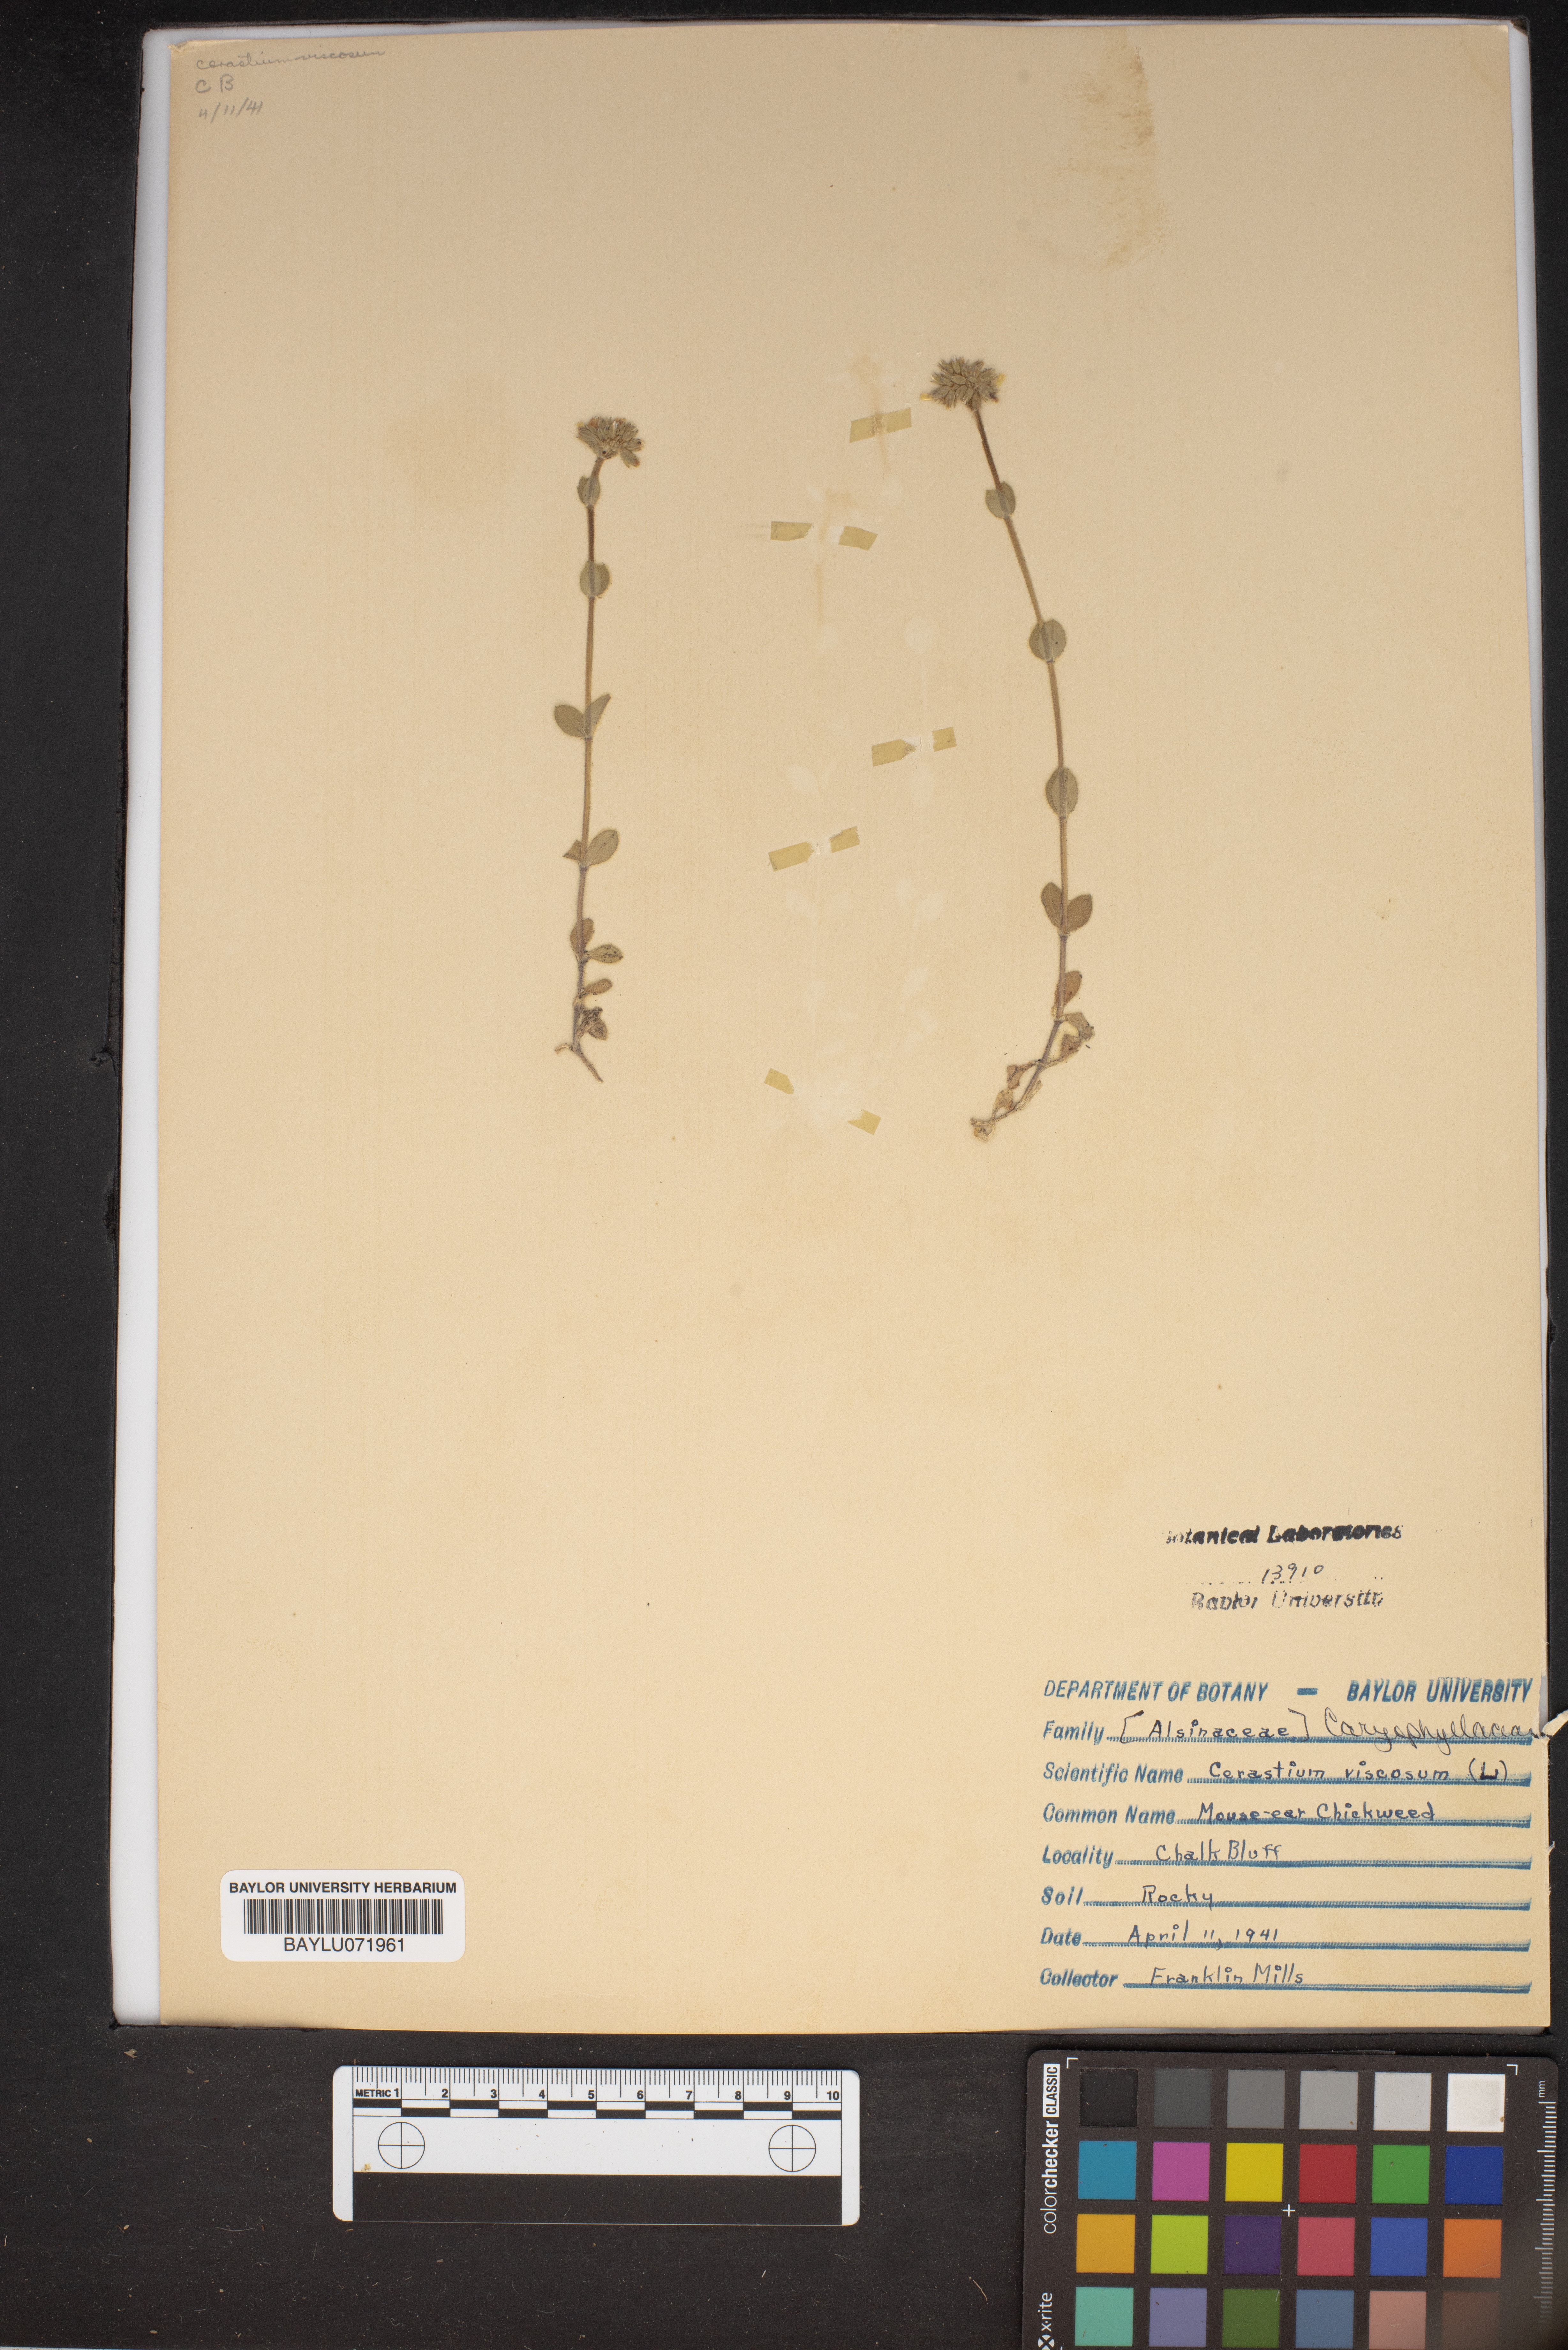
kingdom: Plantae
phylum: Tracheophyta
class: Magnoliopsida
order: Caryophyllales
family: Caryophyllaceae
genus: Cerastium
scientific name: Cerastium holosteoides
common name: Big chickweed
